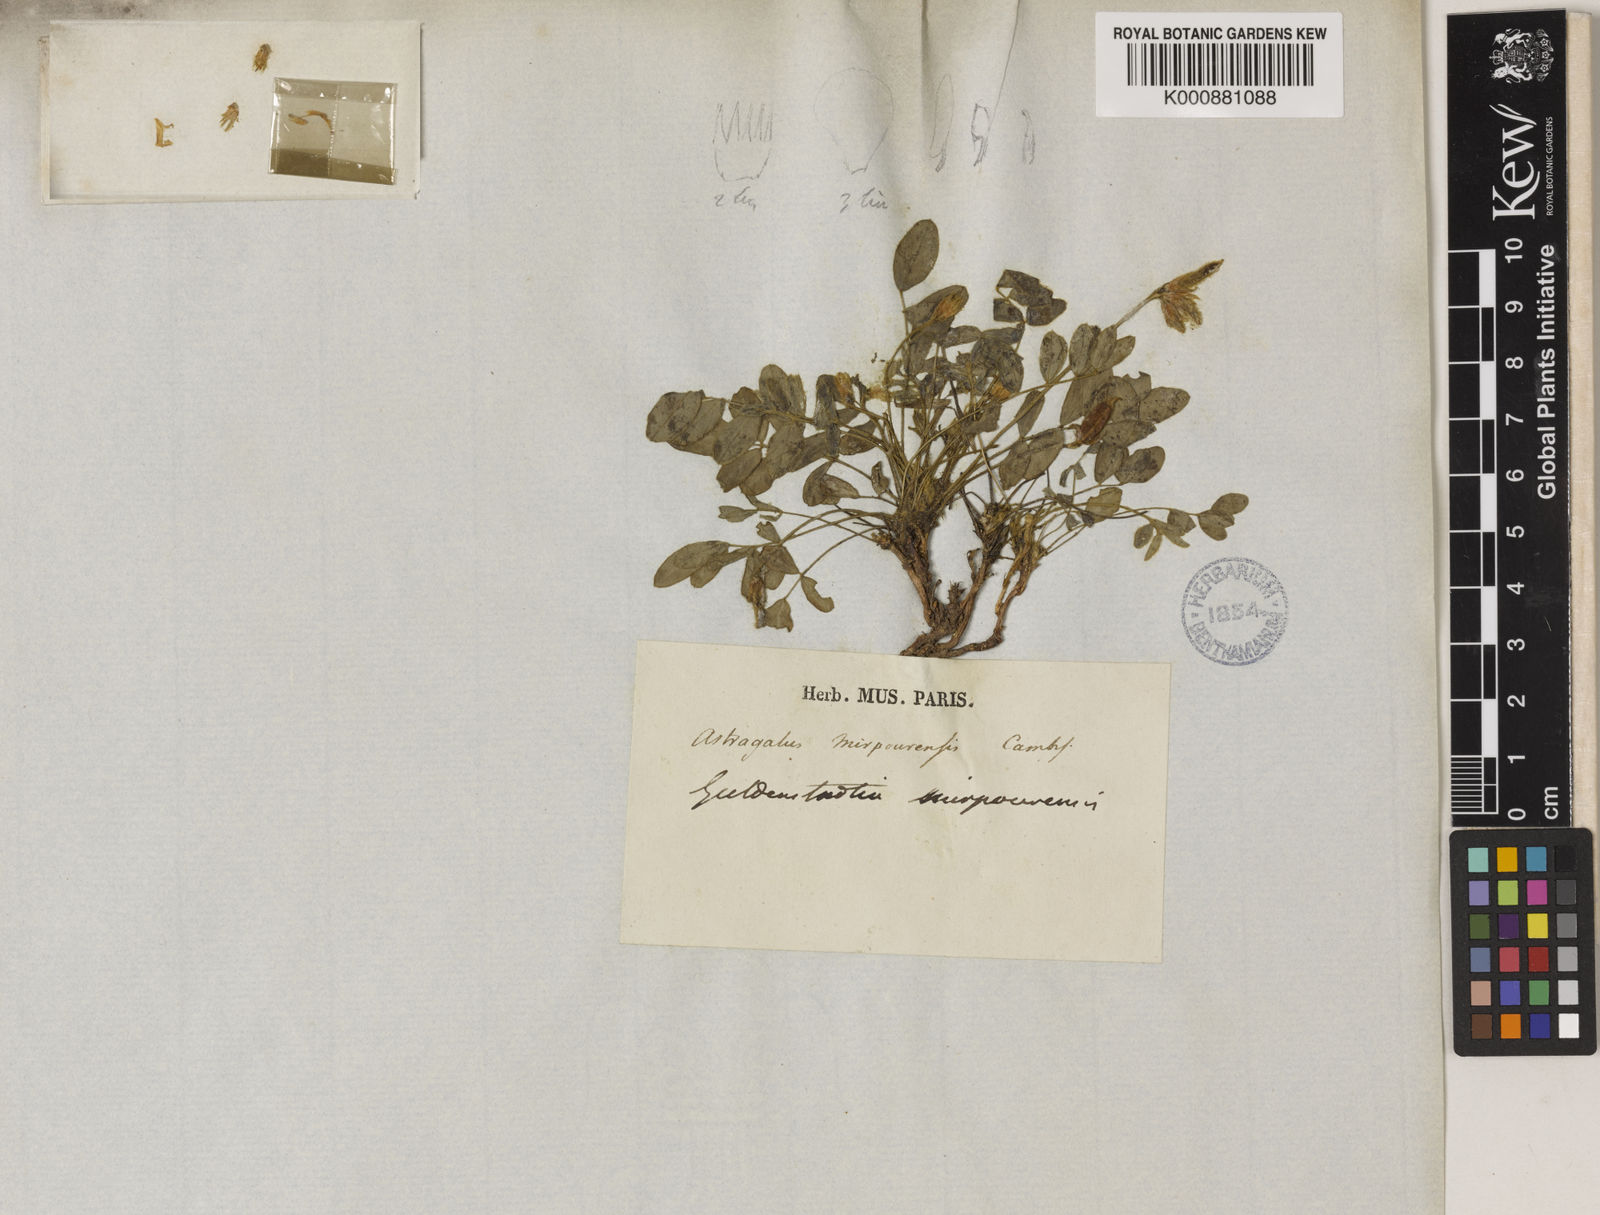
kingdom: Plantae
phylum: Tracheophyta
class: Magnoliopsida
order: Fabales
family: Fabaceae
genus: Gueldenstaedtia
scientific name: Gueldenstaedtia
